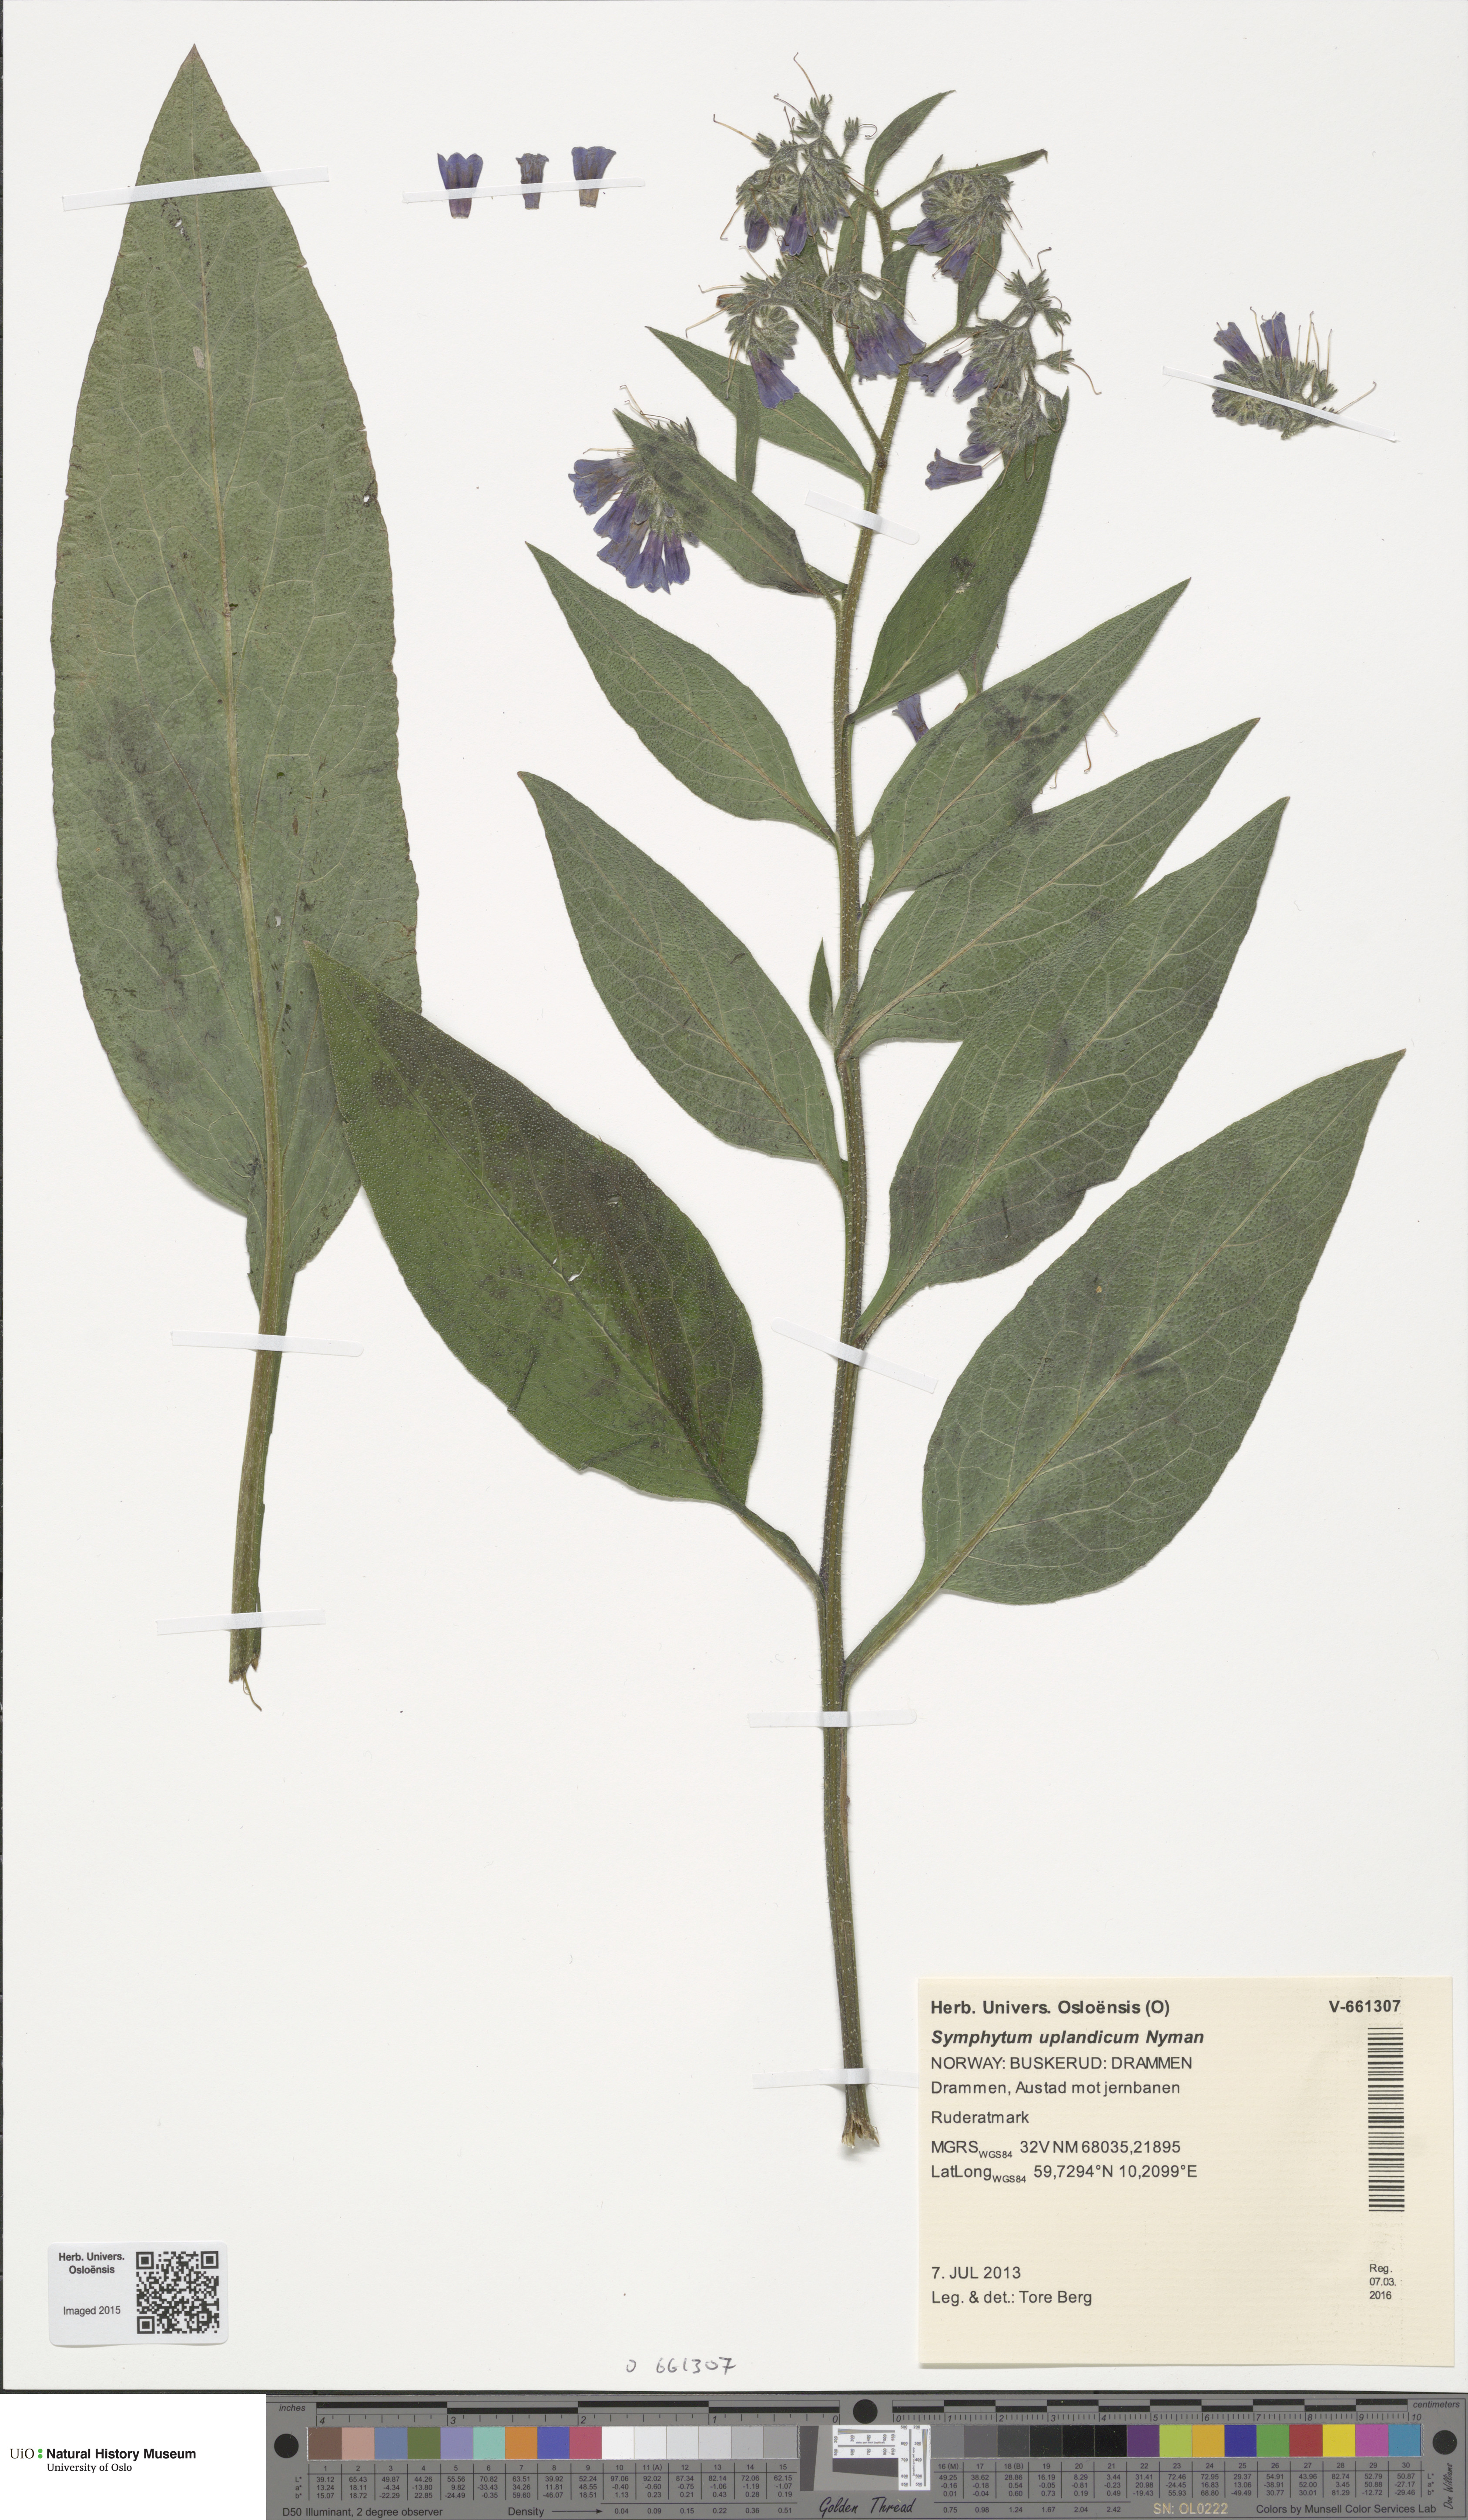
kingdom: Plantae
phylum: Tracheophyta
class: Magnoliopsida
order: Boraginales
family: Boraginaceae
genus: Symphytum
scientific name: Symphytum uplandicum
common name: Russian comfrey
